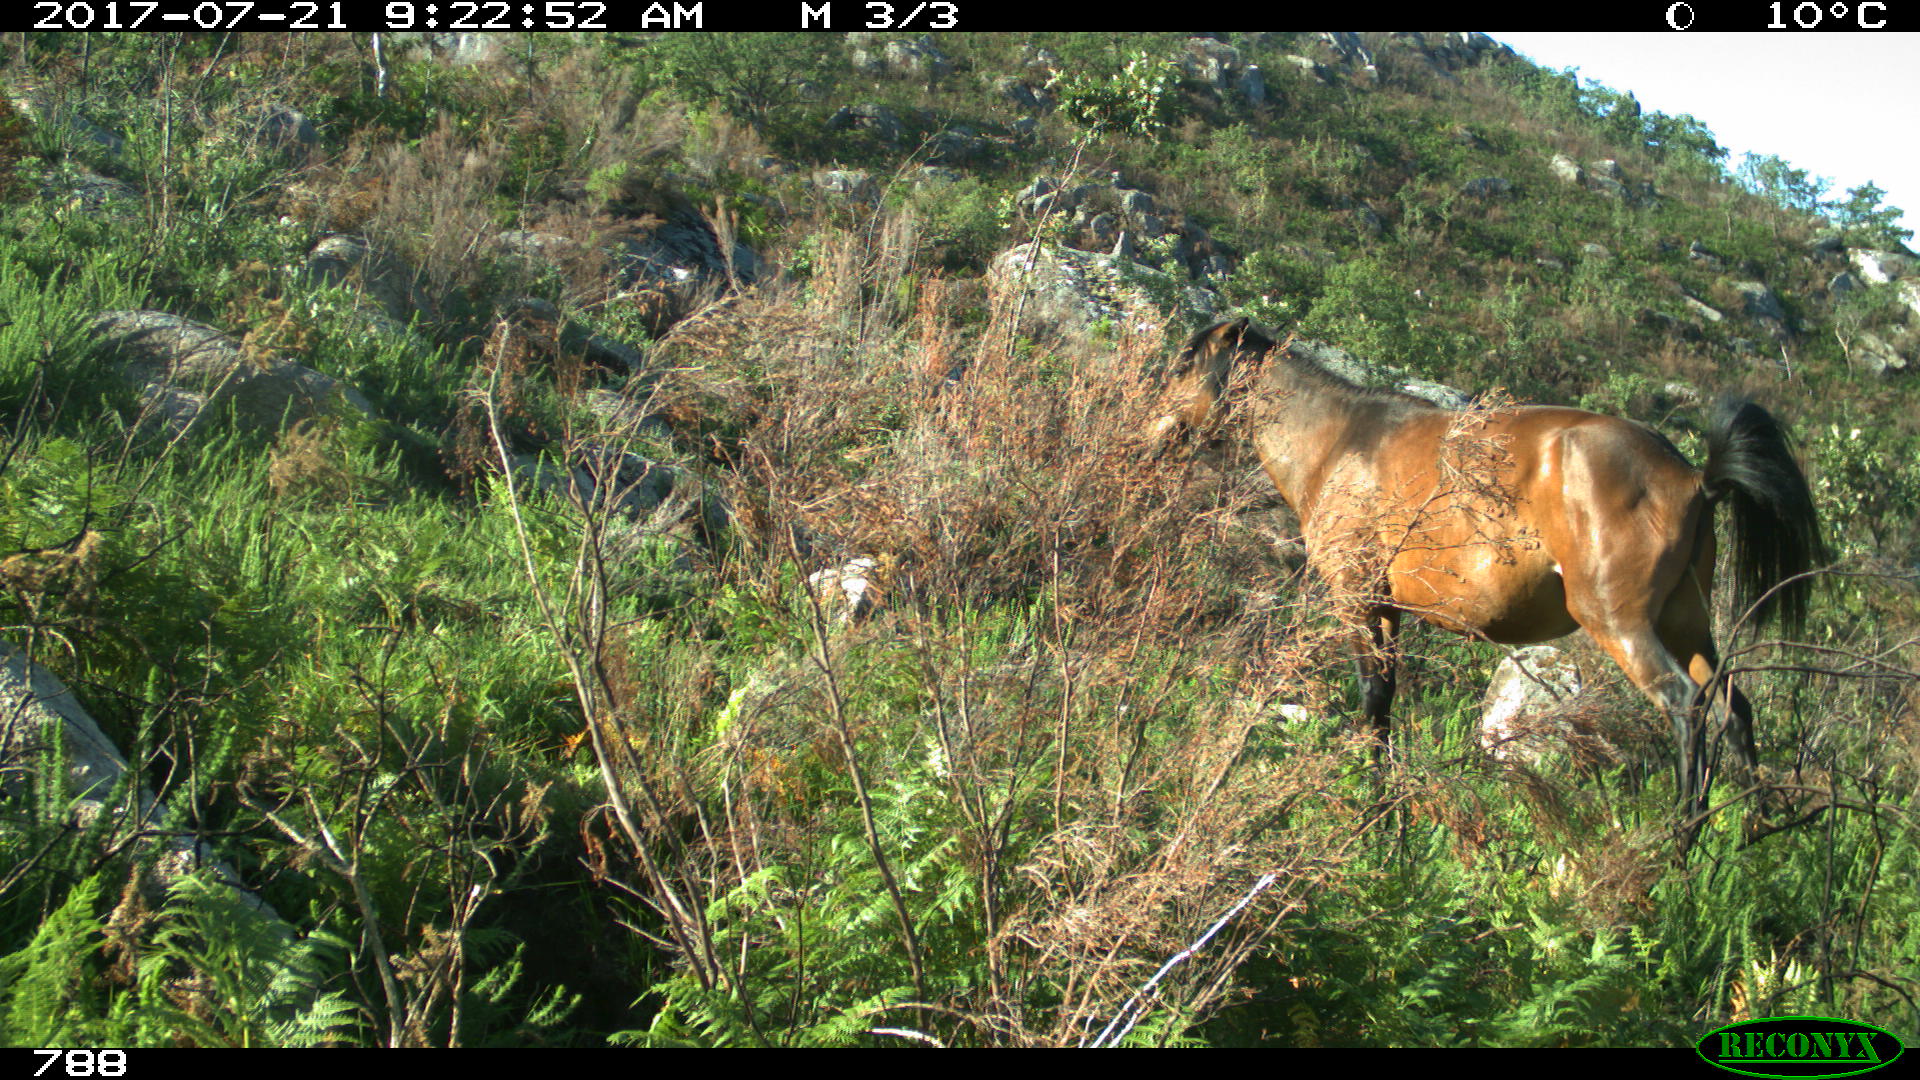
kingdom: Animalia
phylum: Chordata
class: Mammalia
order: Perissodactyla
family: Equidae
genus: Equus
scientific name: Equus caballus
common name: Horse
